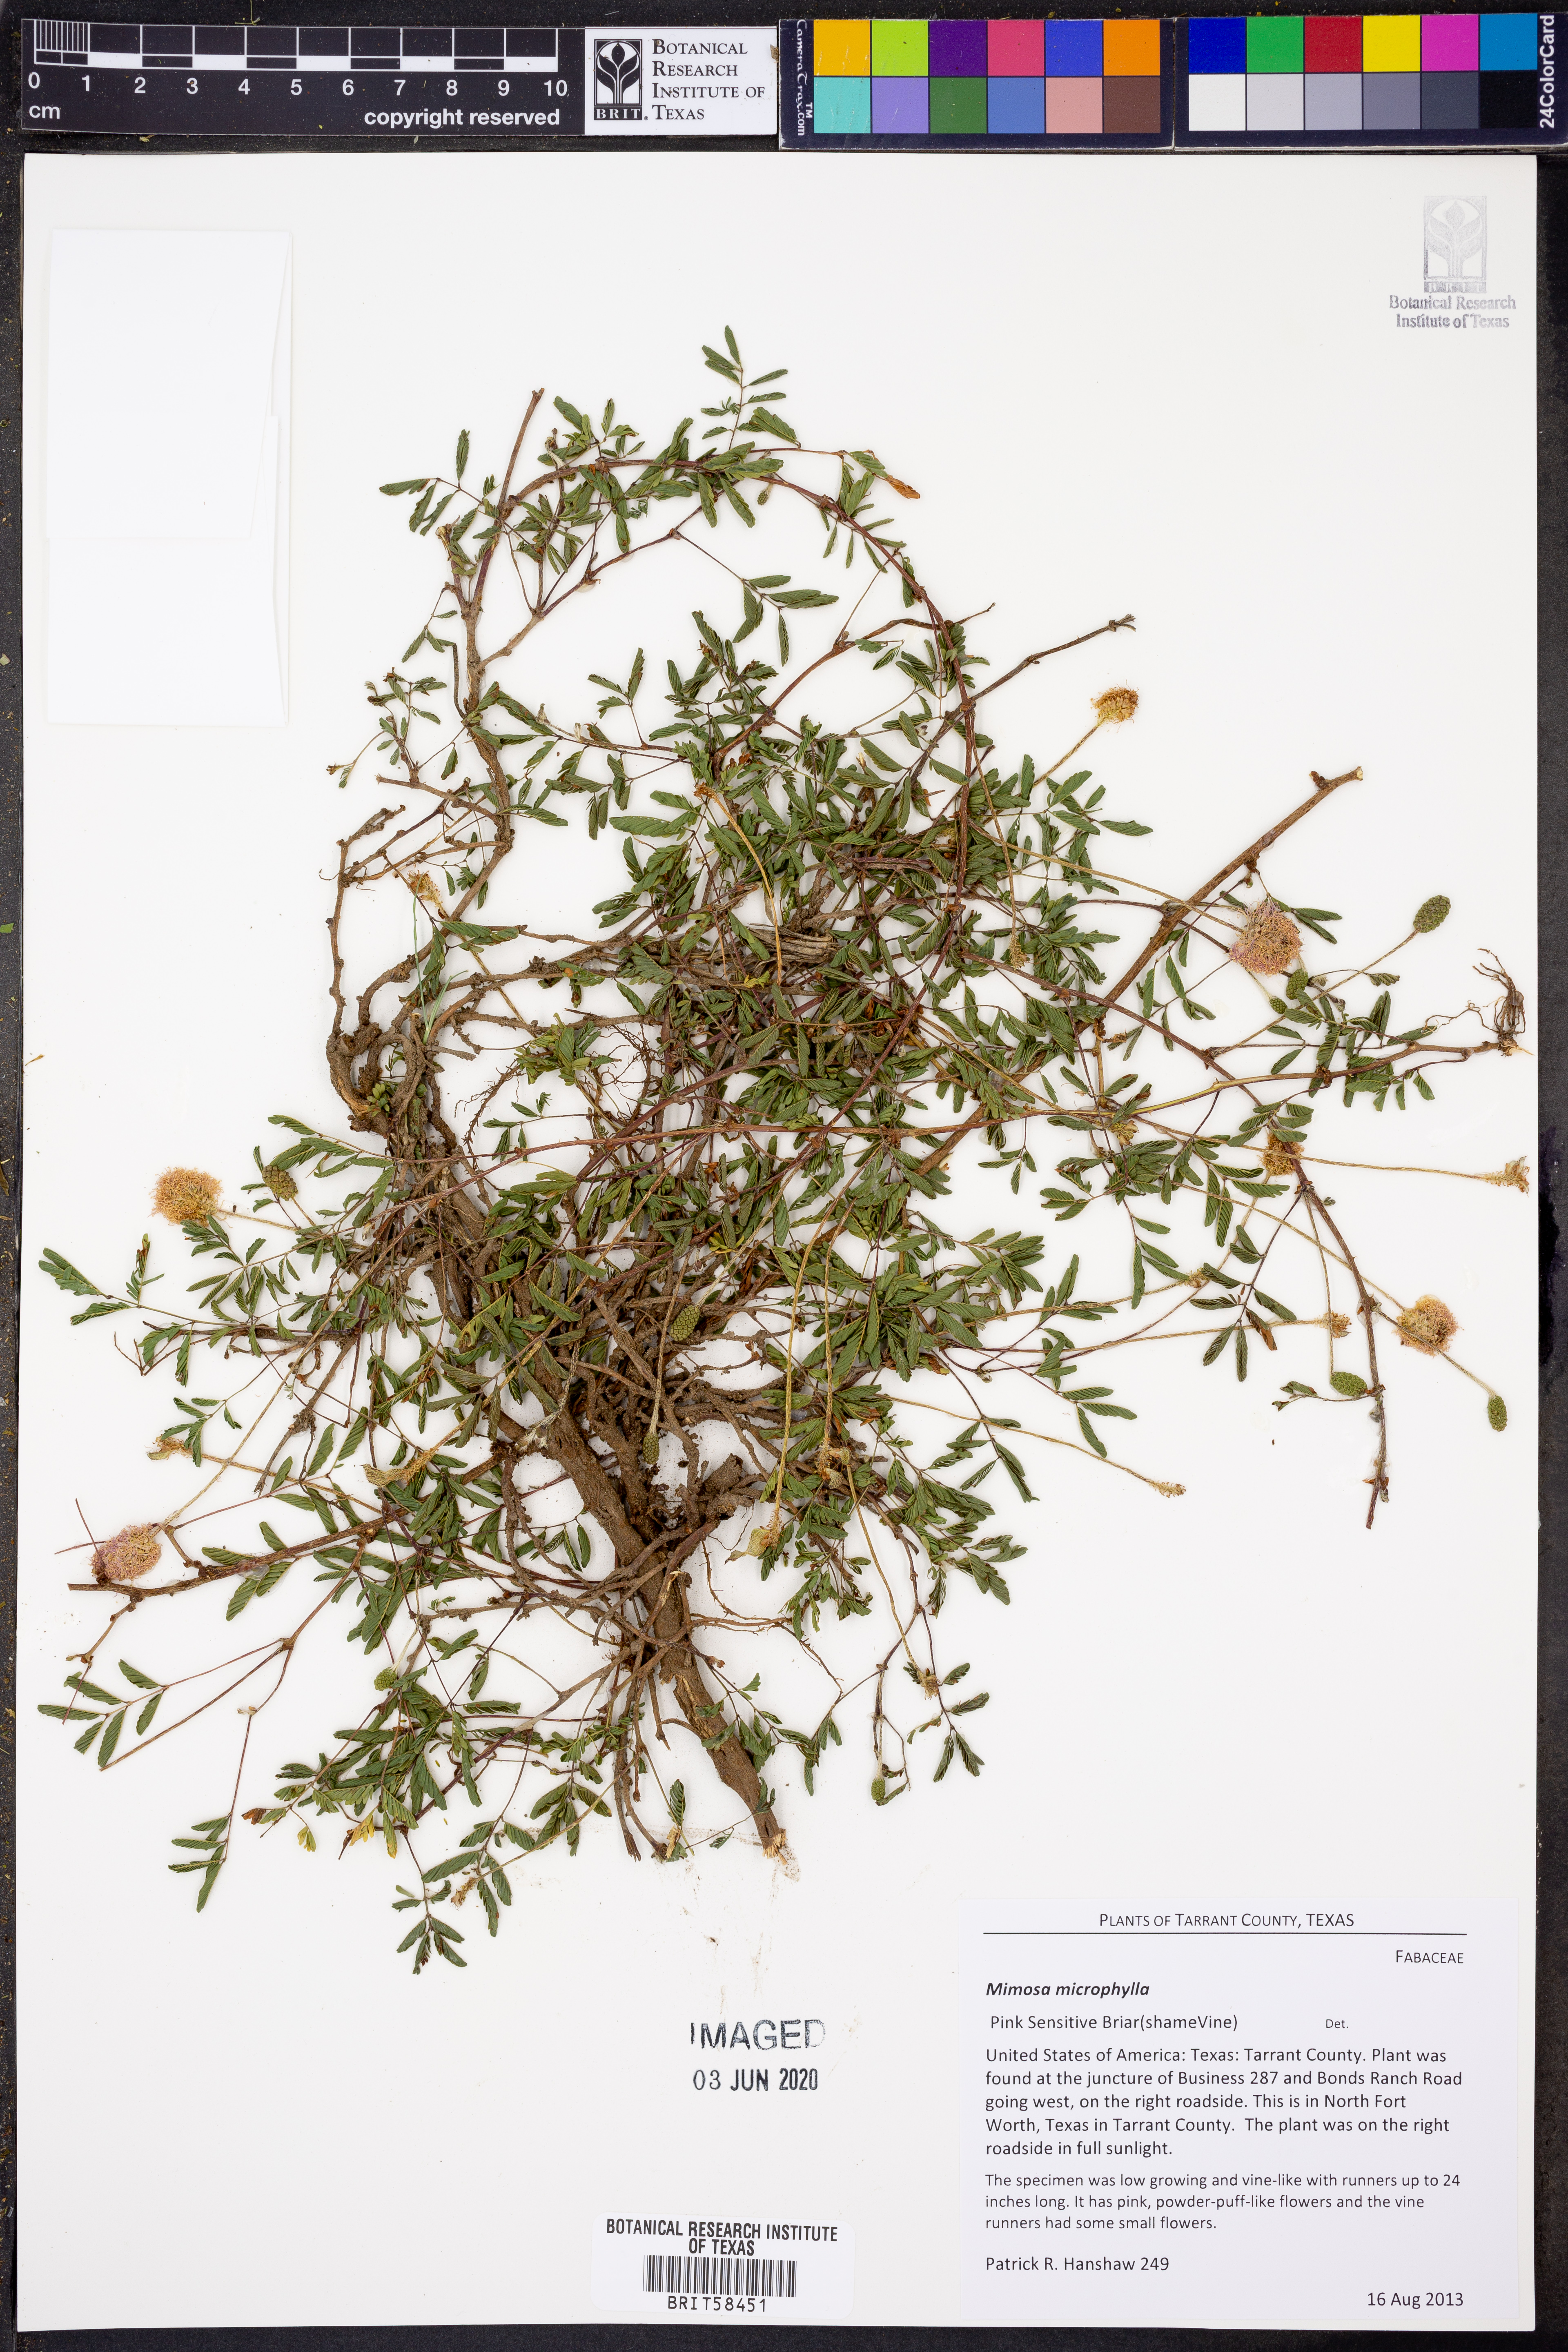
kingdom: Plantae
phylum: Tracheophyta
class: Magnoliopsida
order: Fabales
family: Fabaceae
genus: Mimosa
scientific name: Mimosa quadrivalvis
